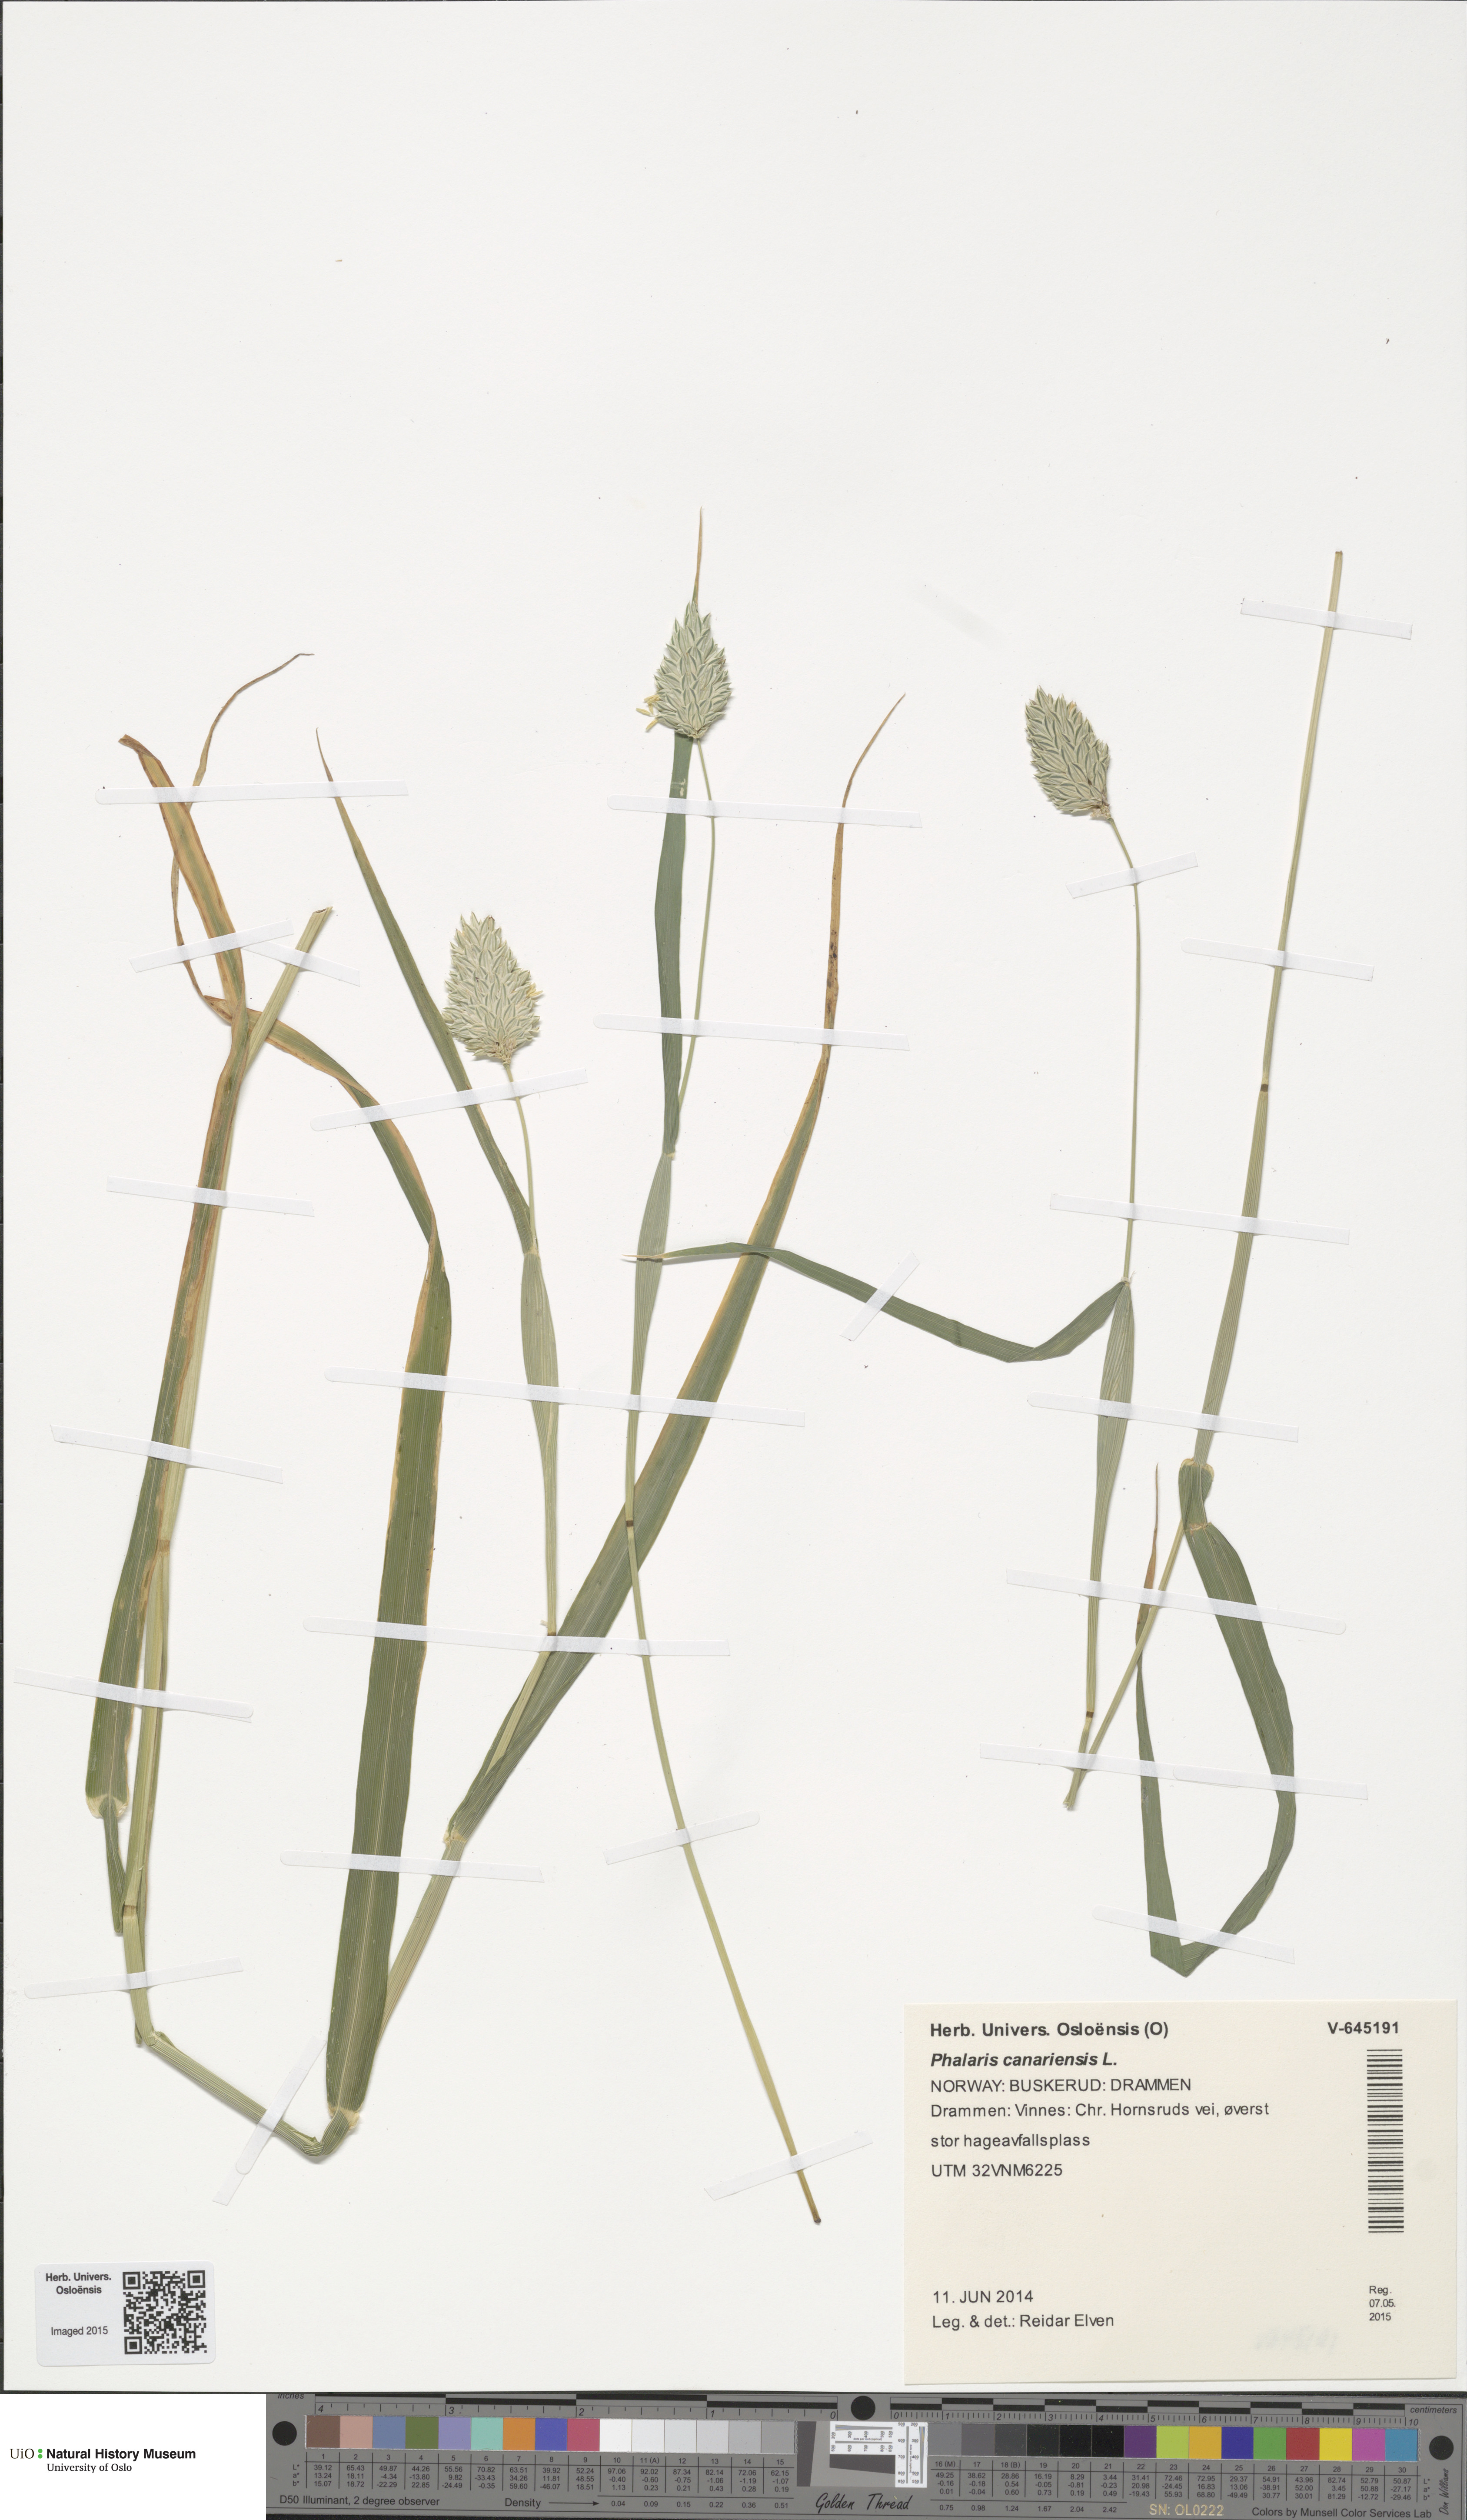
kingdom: Plantae
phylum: Tracheophyta
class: Liliopsida
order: Poales
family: Poaceae
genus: Phalaris
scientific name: Phalaris canariensis
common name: Annual canarygrass
